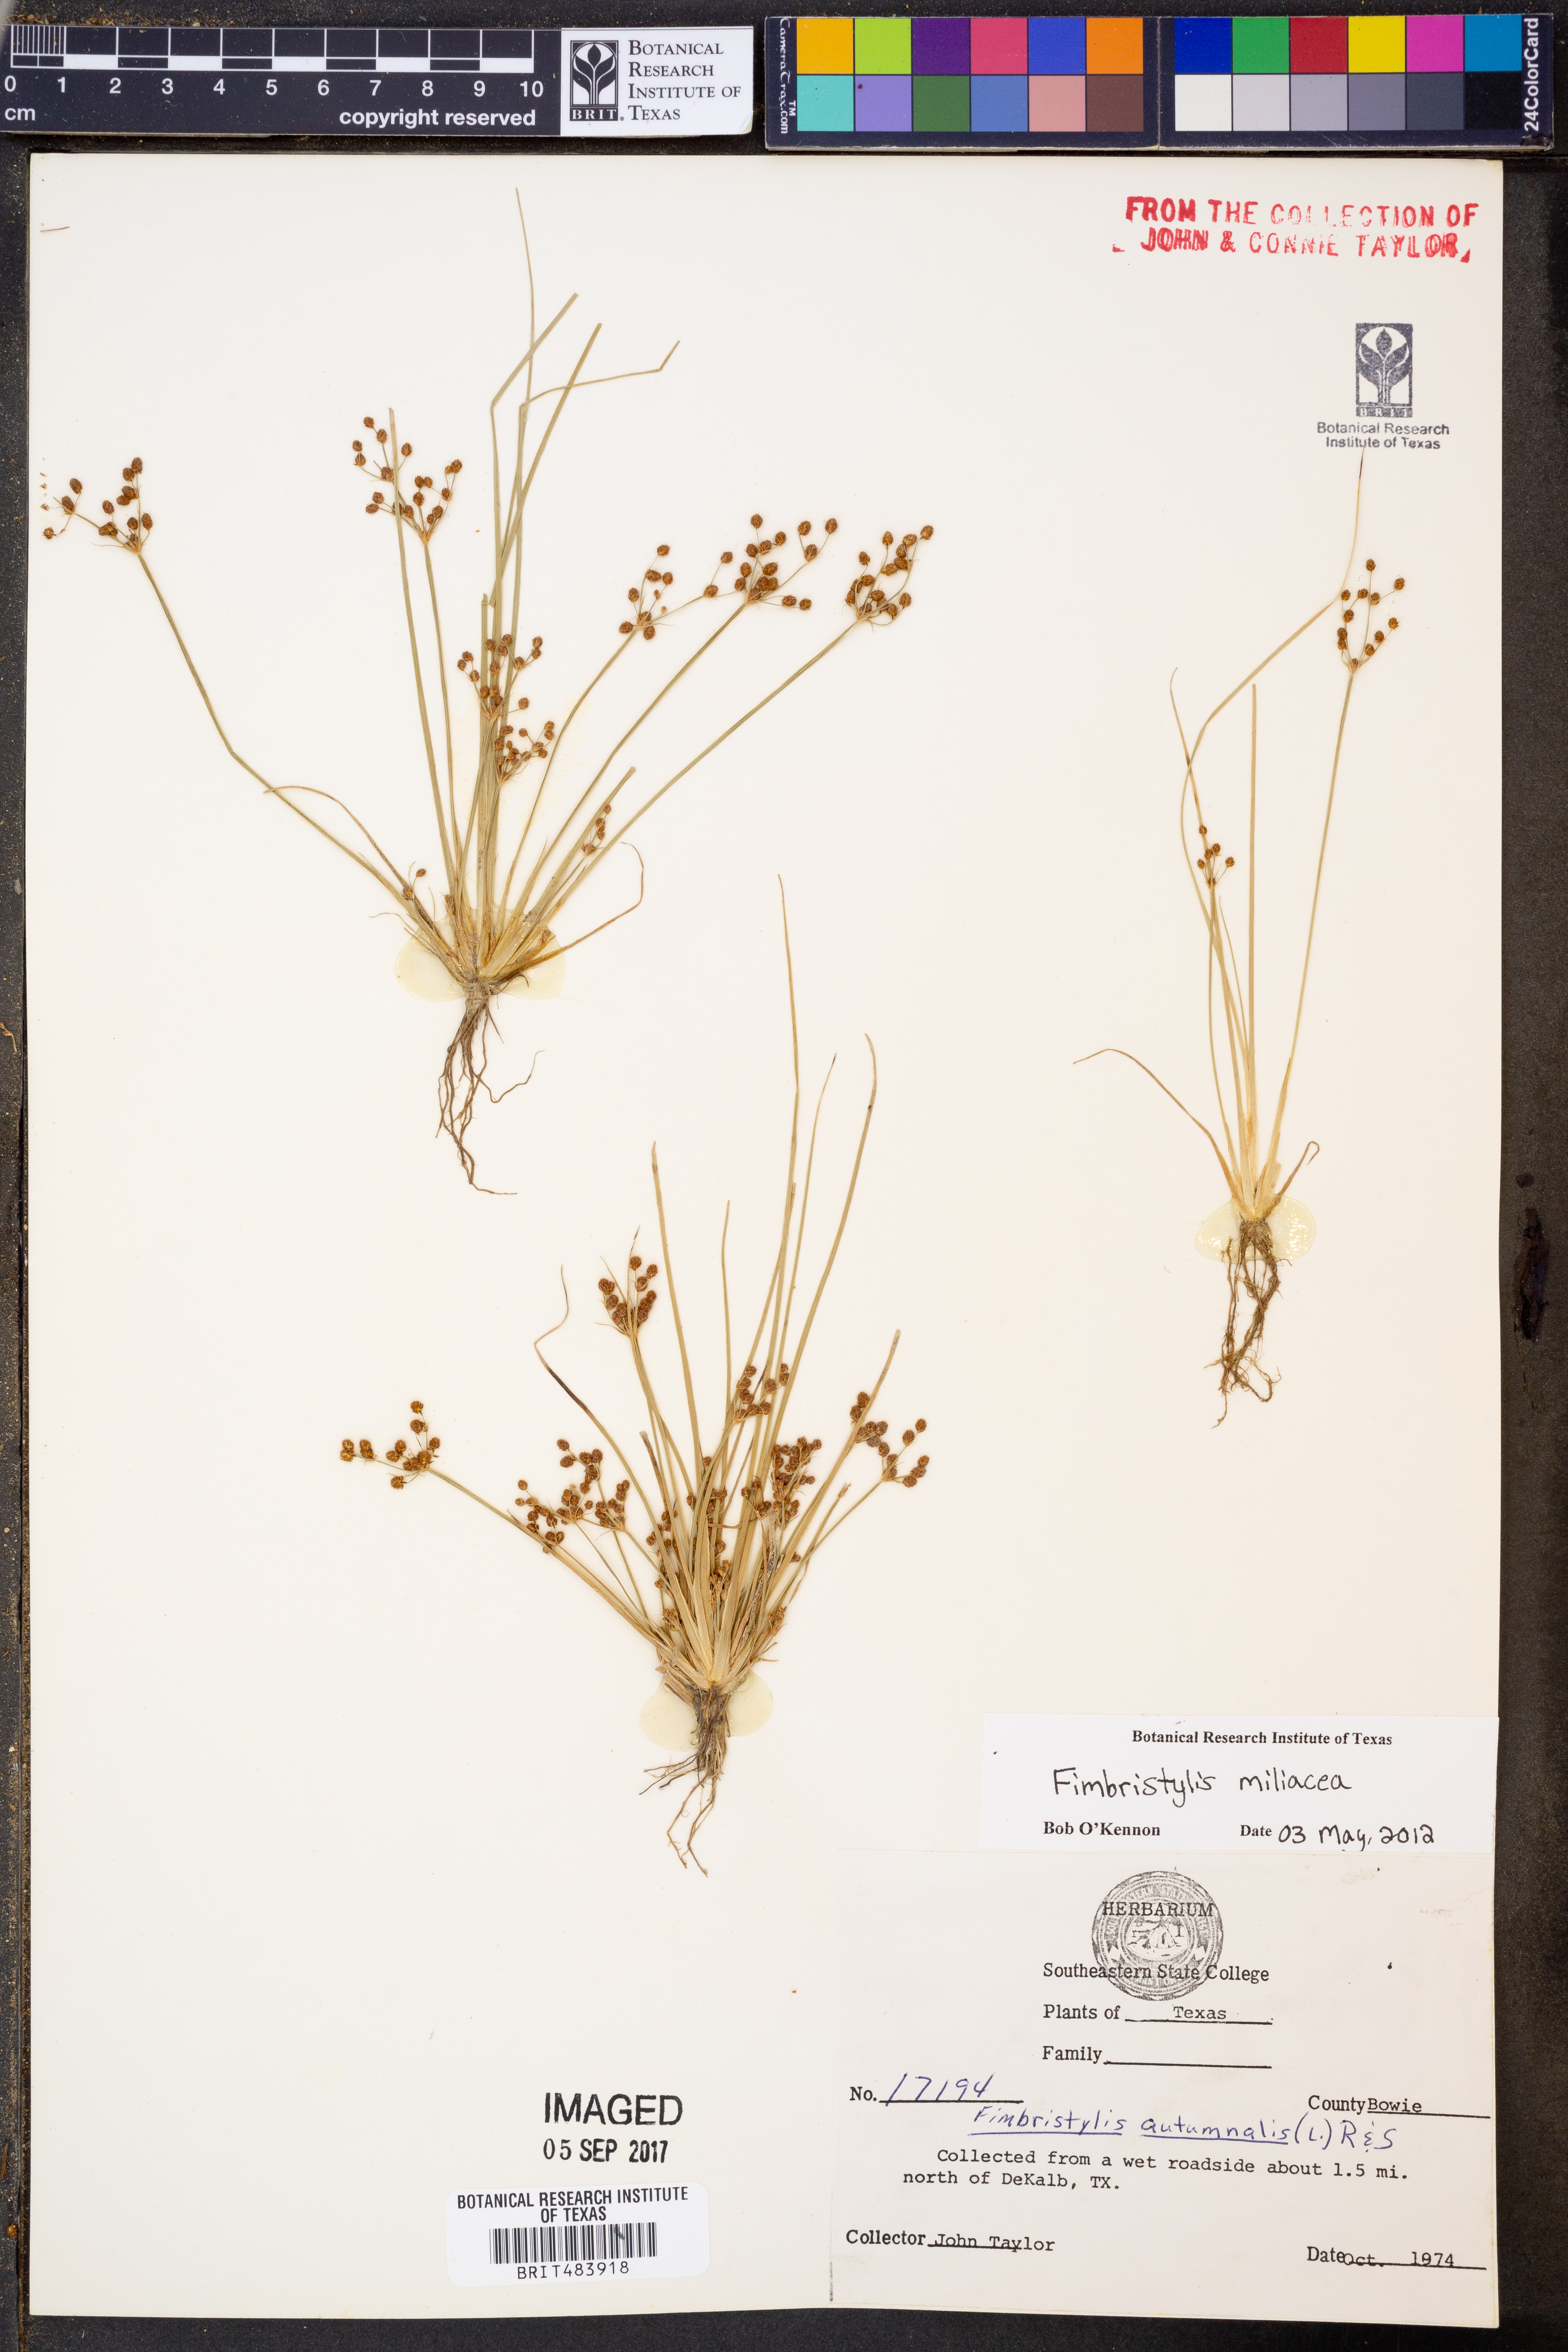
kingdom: Plantae
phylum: Tracheophyta
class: Liliopsida
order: Poales
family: Cyperaceae
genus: Fimbristylis
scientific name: Fimbristylis quinquangularis
